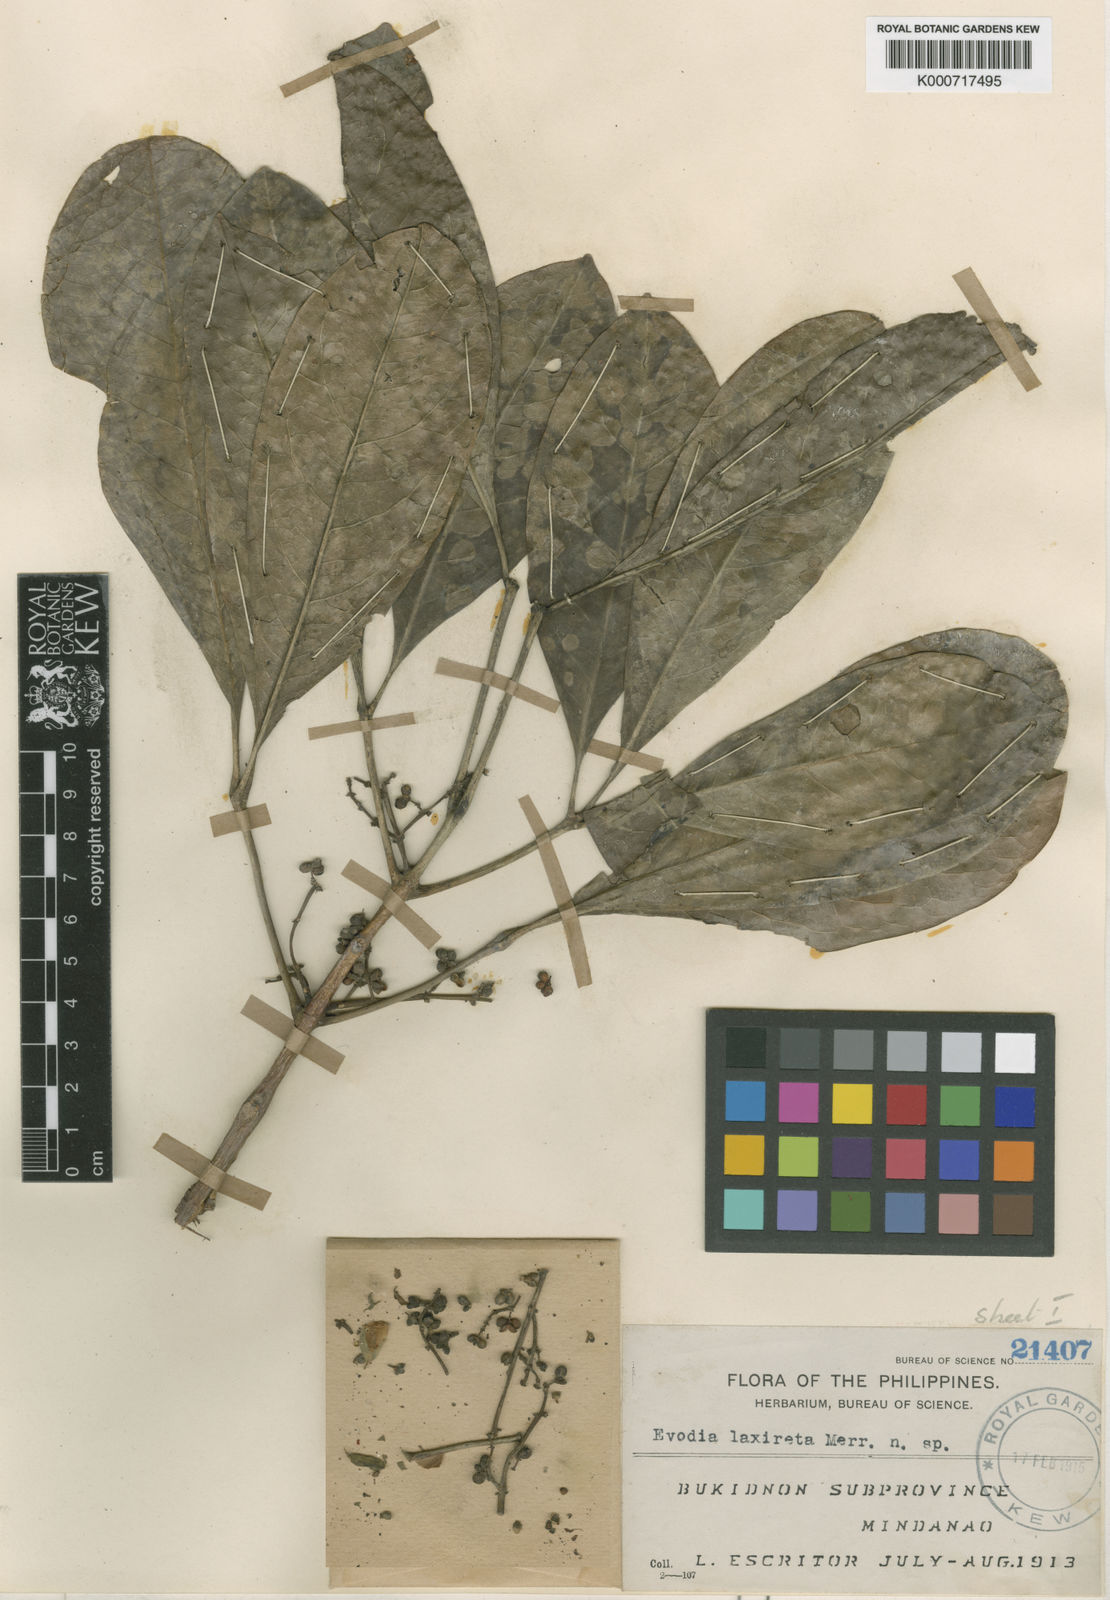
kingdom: Plantae
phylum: Tracheophyta
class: Magnoliopsida
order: Sapindales
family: Rutaceae
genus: Melicope
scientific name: Melicope triphylla
